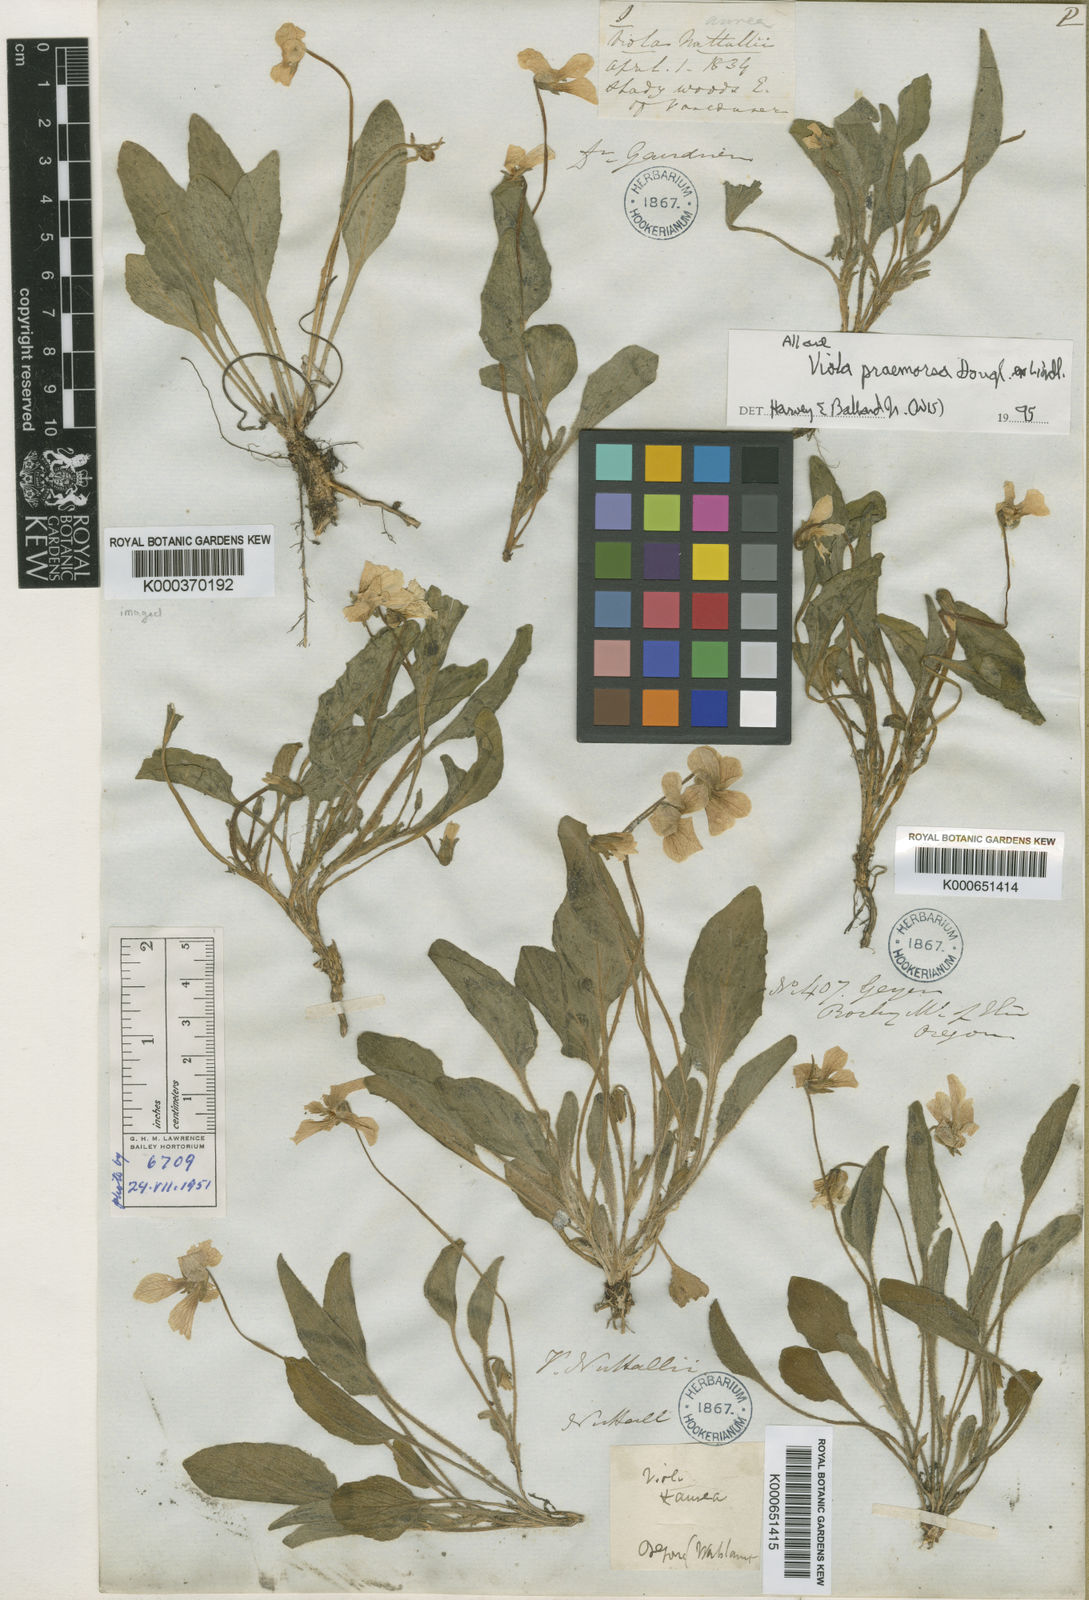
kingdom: Plantae
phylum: Tracheophyta
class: Magnoliopsida
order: Malpighiales
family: Violaceae
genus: Viola
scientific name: Viola vallicola
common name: Valley violet
